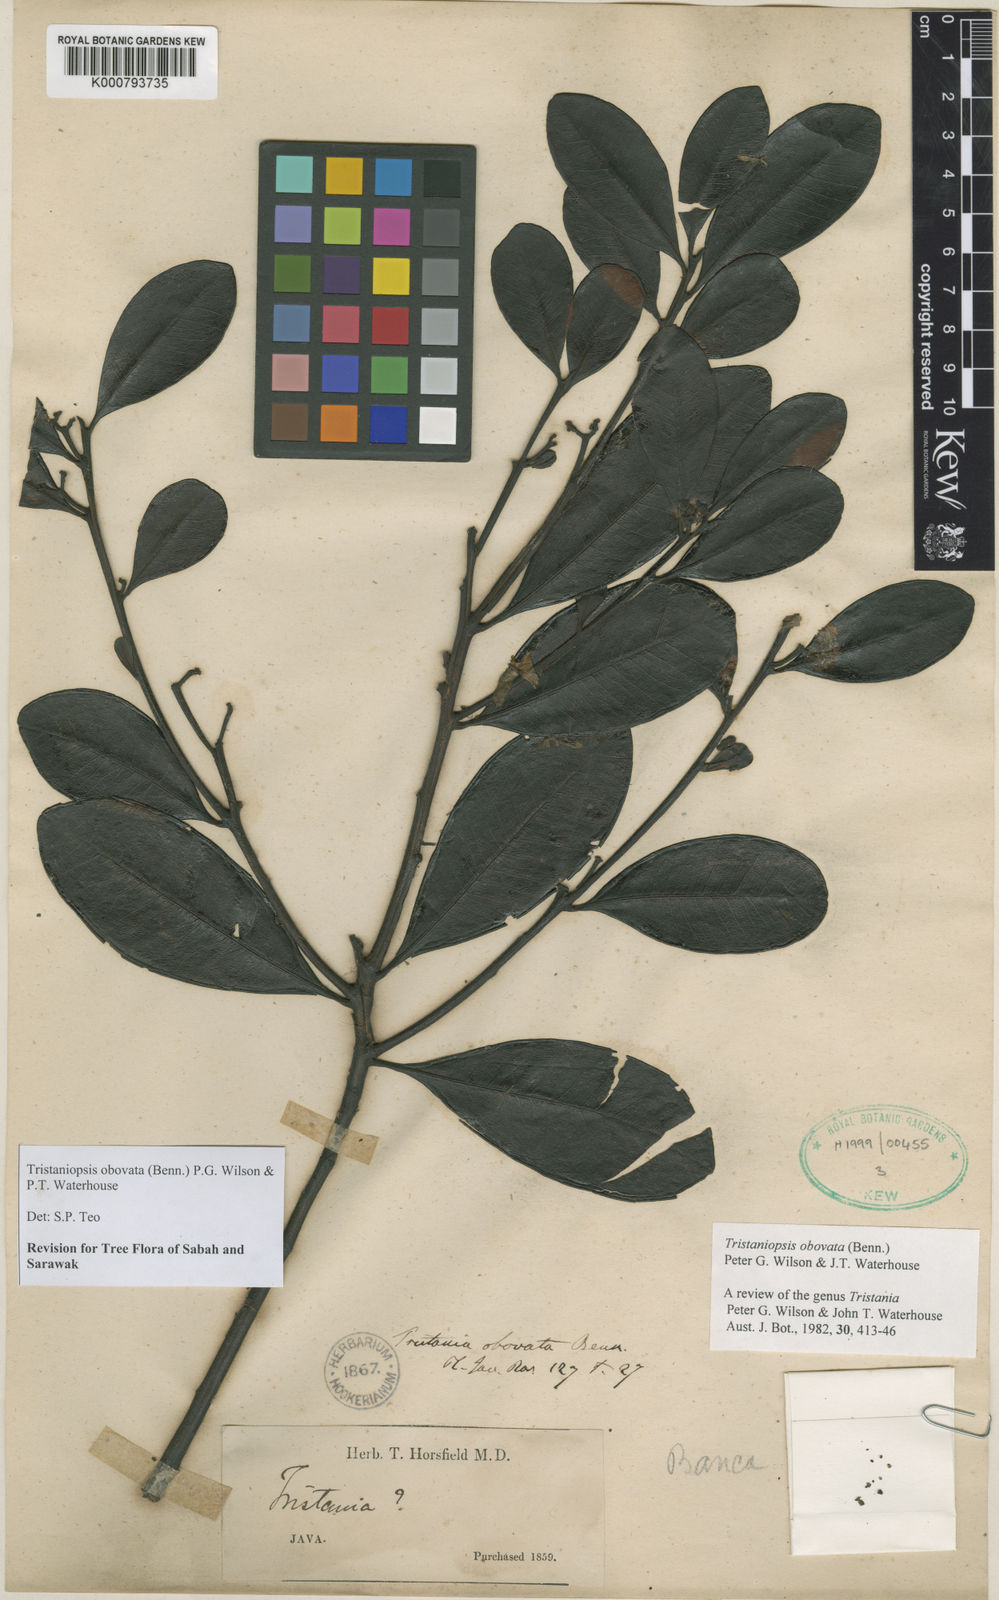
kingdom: Plantae
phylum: Tracheophyta
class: Magnoliopsida
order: Myrtales
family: Myrtaceae
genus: Tristaniopsis
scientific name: Tristaniopsis obovata
